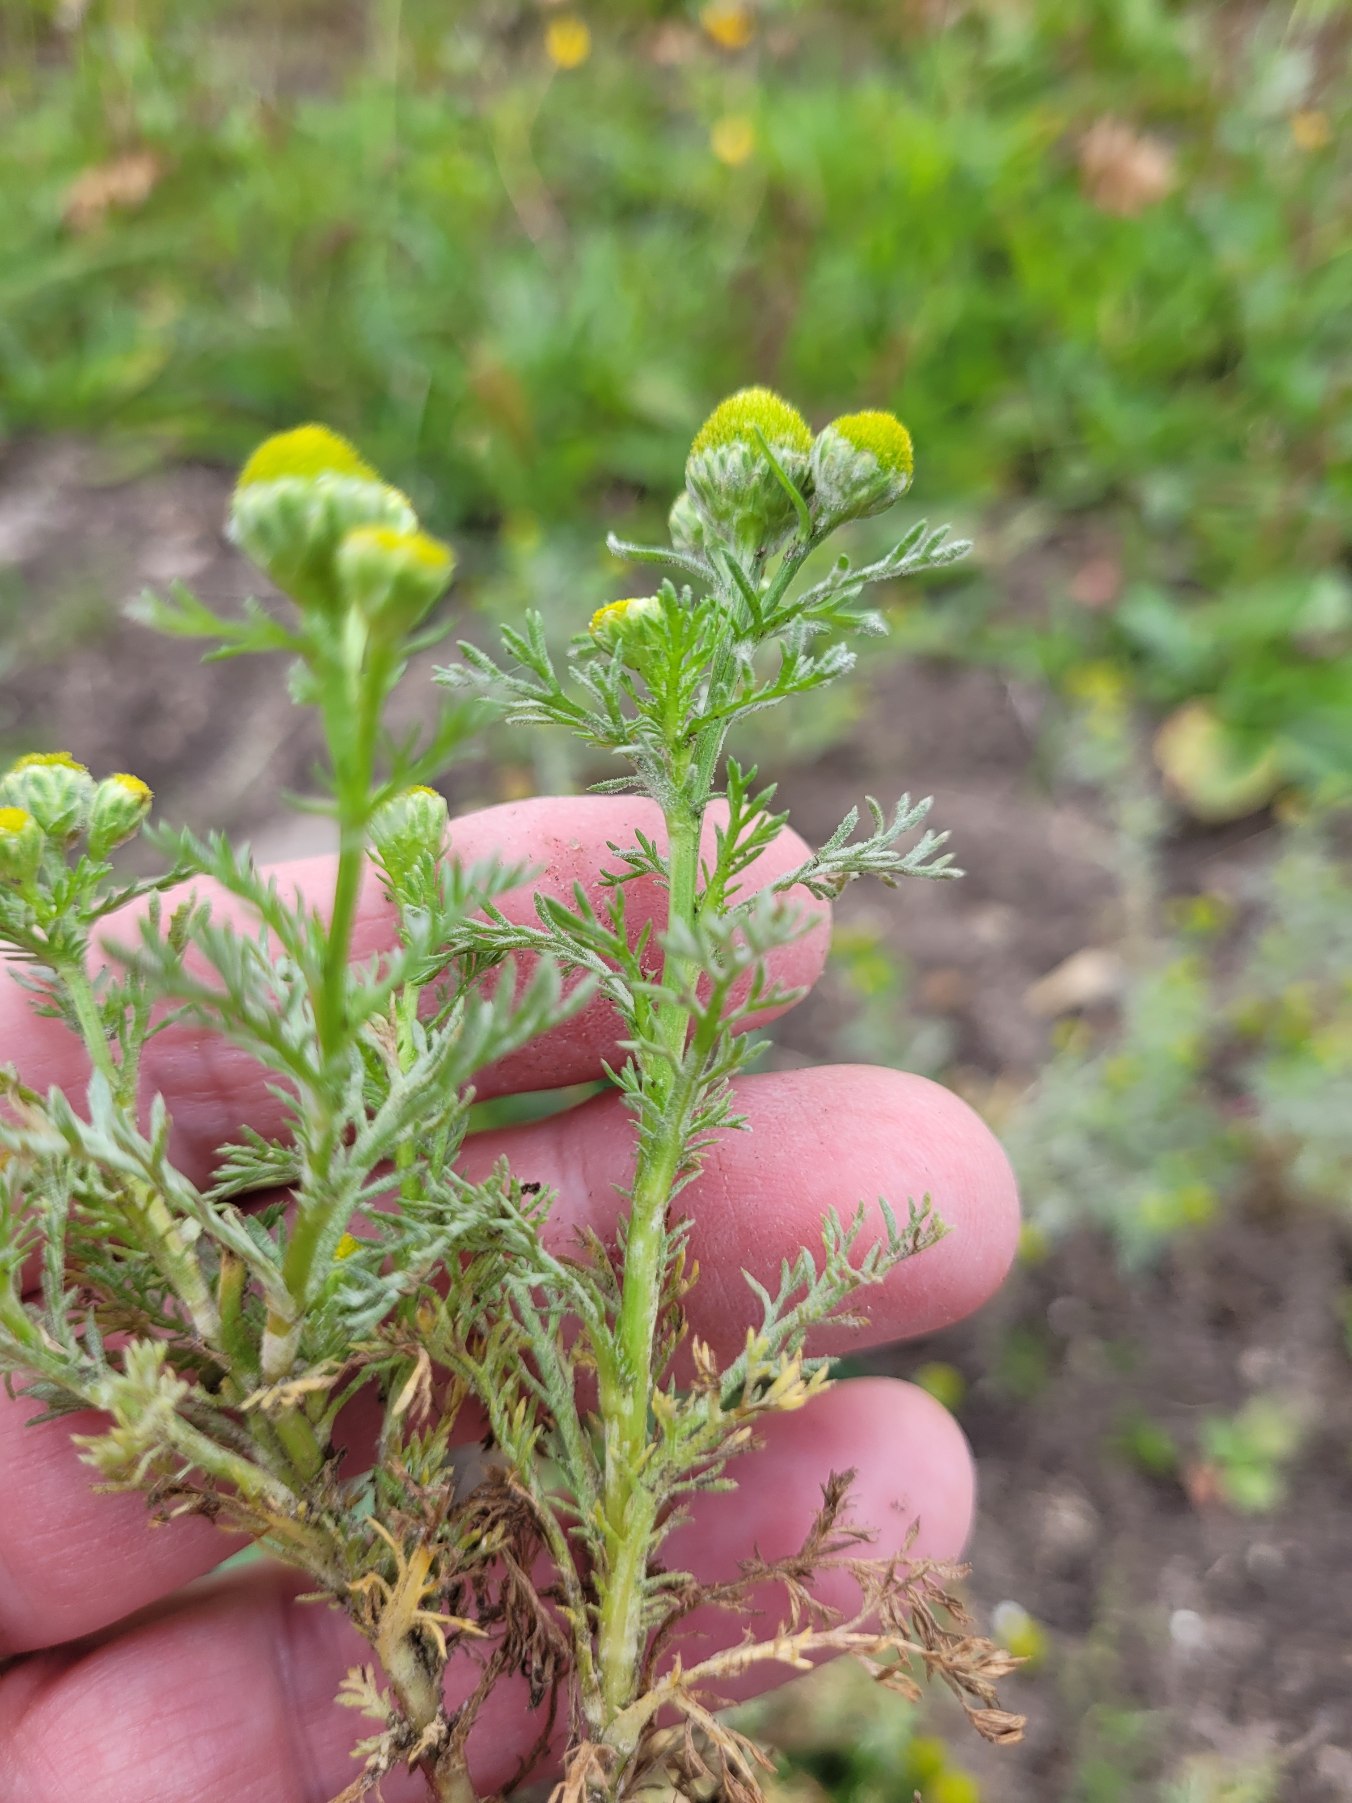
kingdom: Plantae
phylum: Tracheophyta
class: Magnoliopsida
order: Asterales
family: Asteraceae
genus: Matricaria
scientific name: Matricaria discoidea
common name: Skive-kamille
